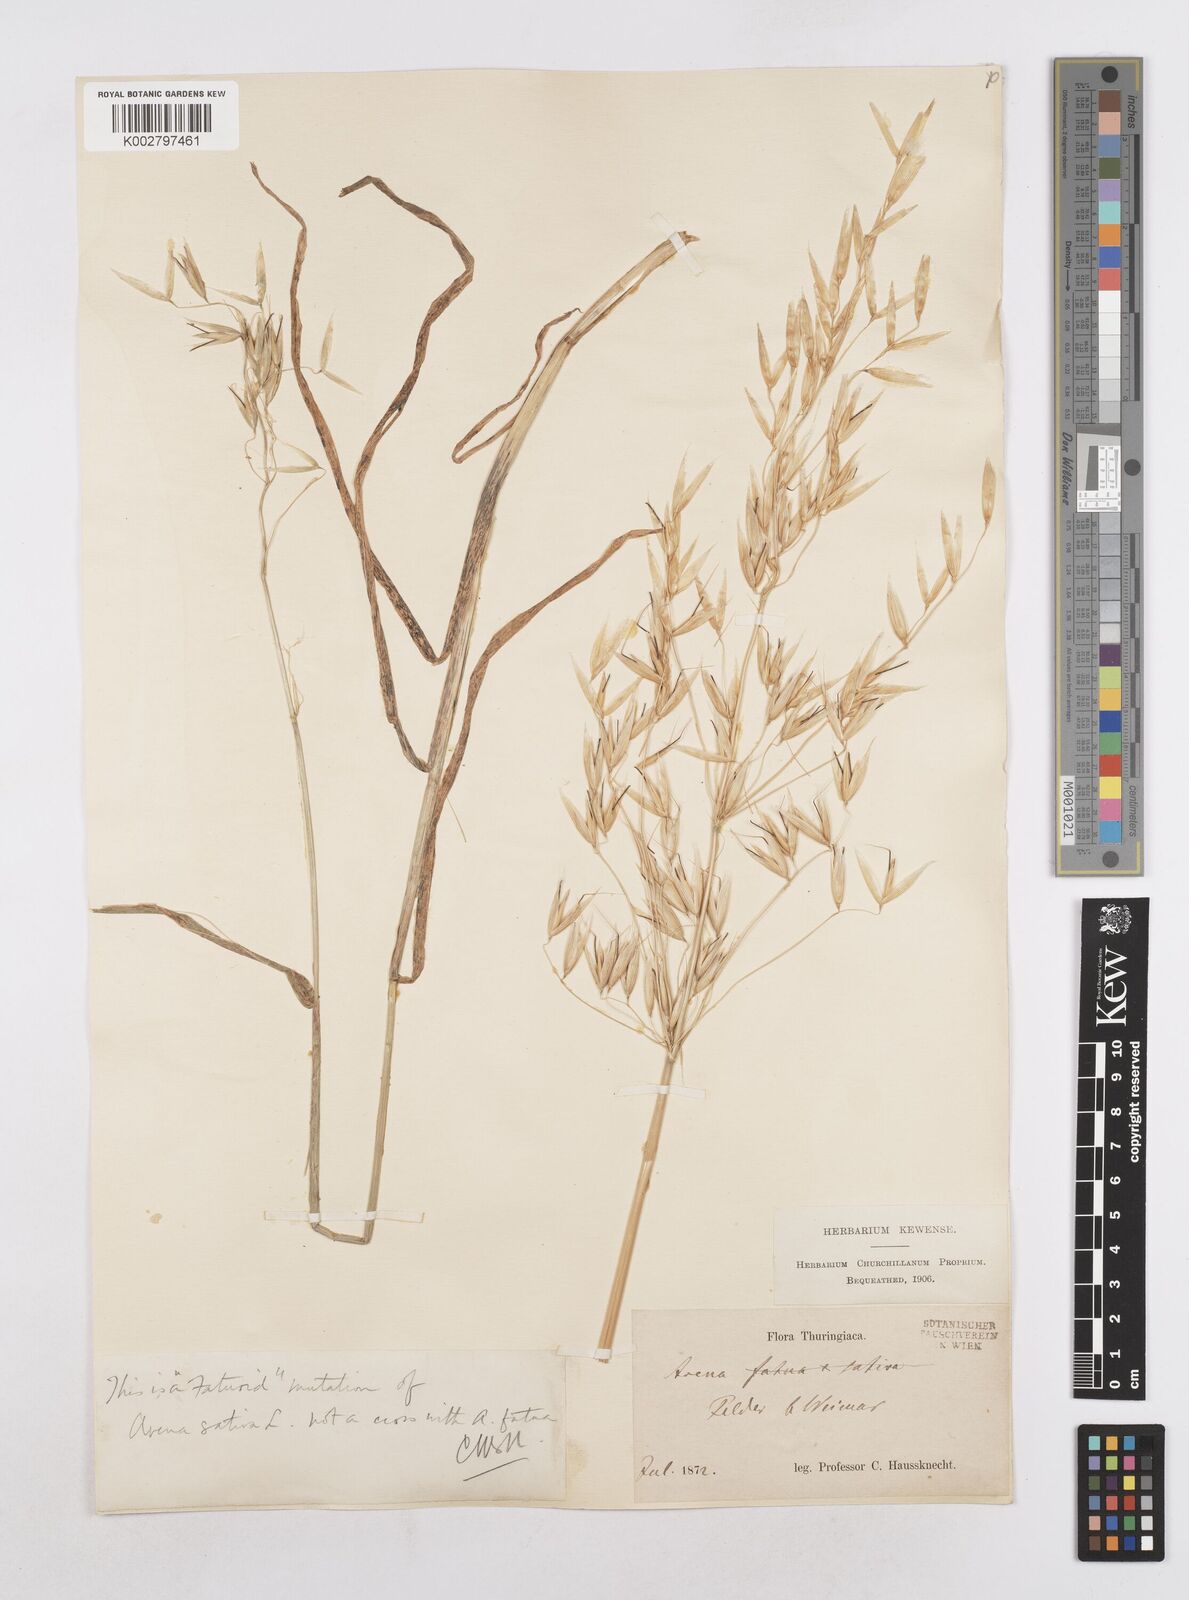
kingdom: Plantae
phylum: Tracheophyta
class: Liliopsida
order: Poales
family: Poaceae
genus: Avena
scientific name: Avena fatua
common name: Wild oat
